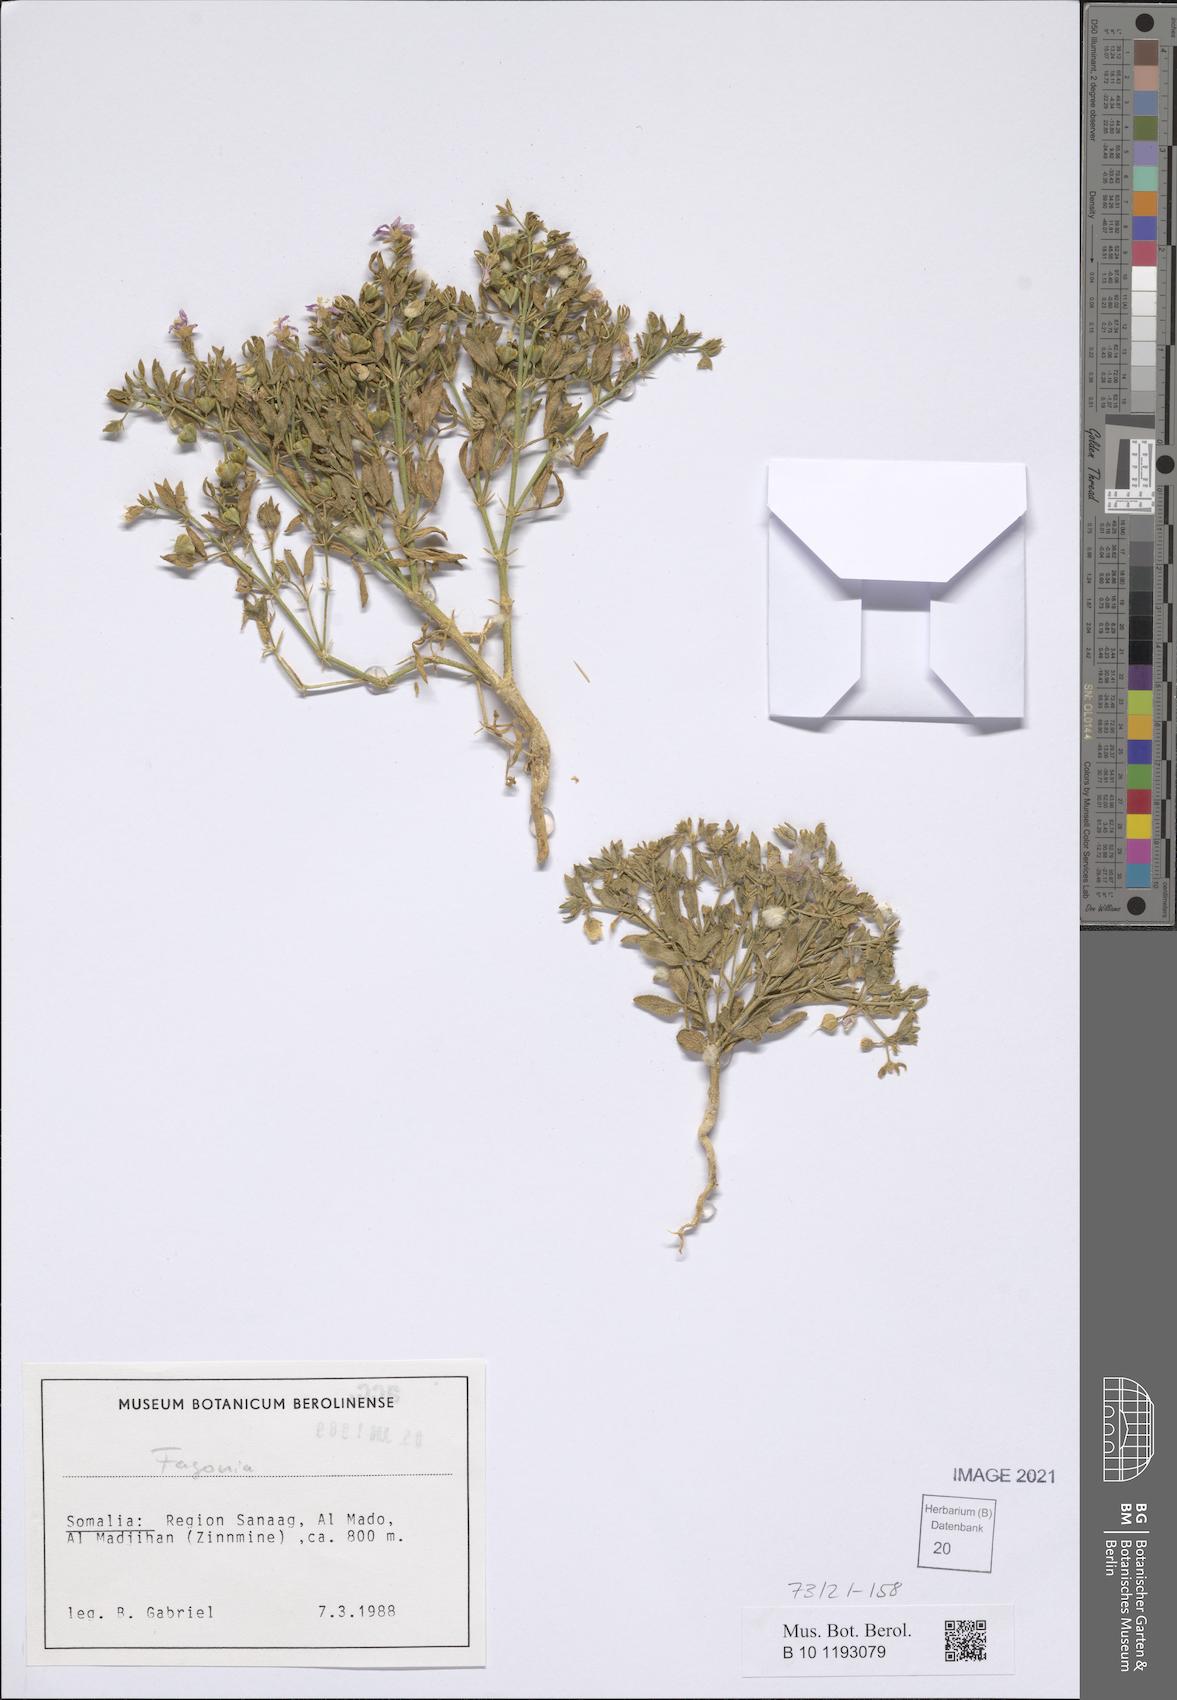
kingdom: Plantae
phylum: Tracheophyta
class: Magnoliopsida
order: Zygophyllales
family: Zygophyllaceae
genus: Fagonia
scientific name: Fagonia
